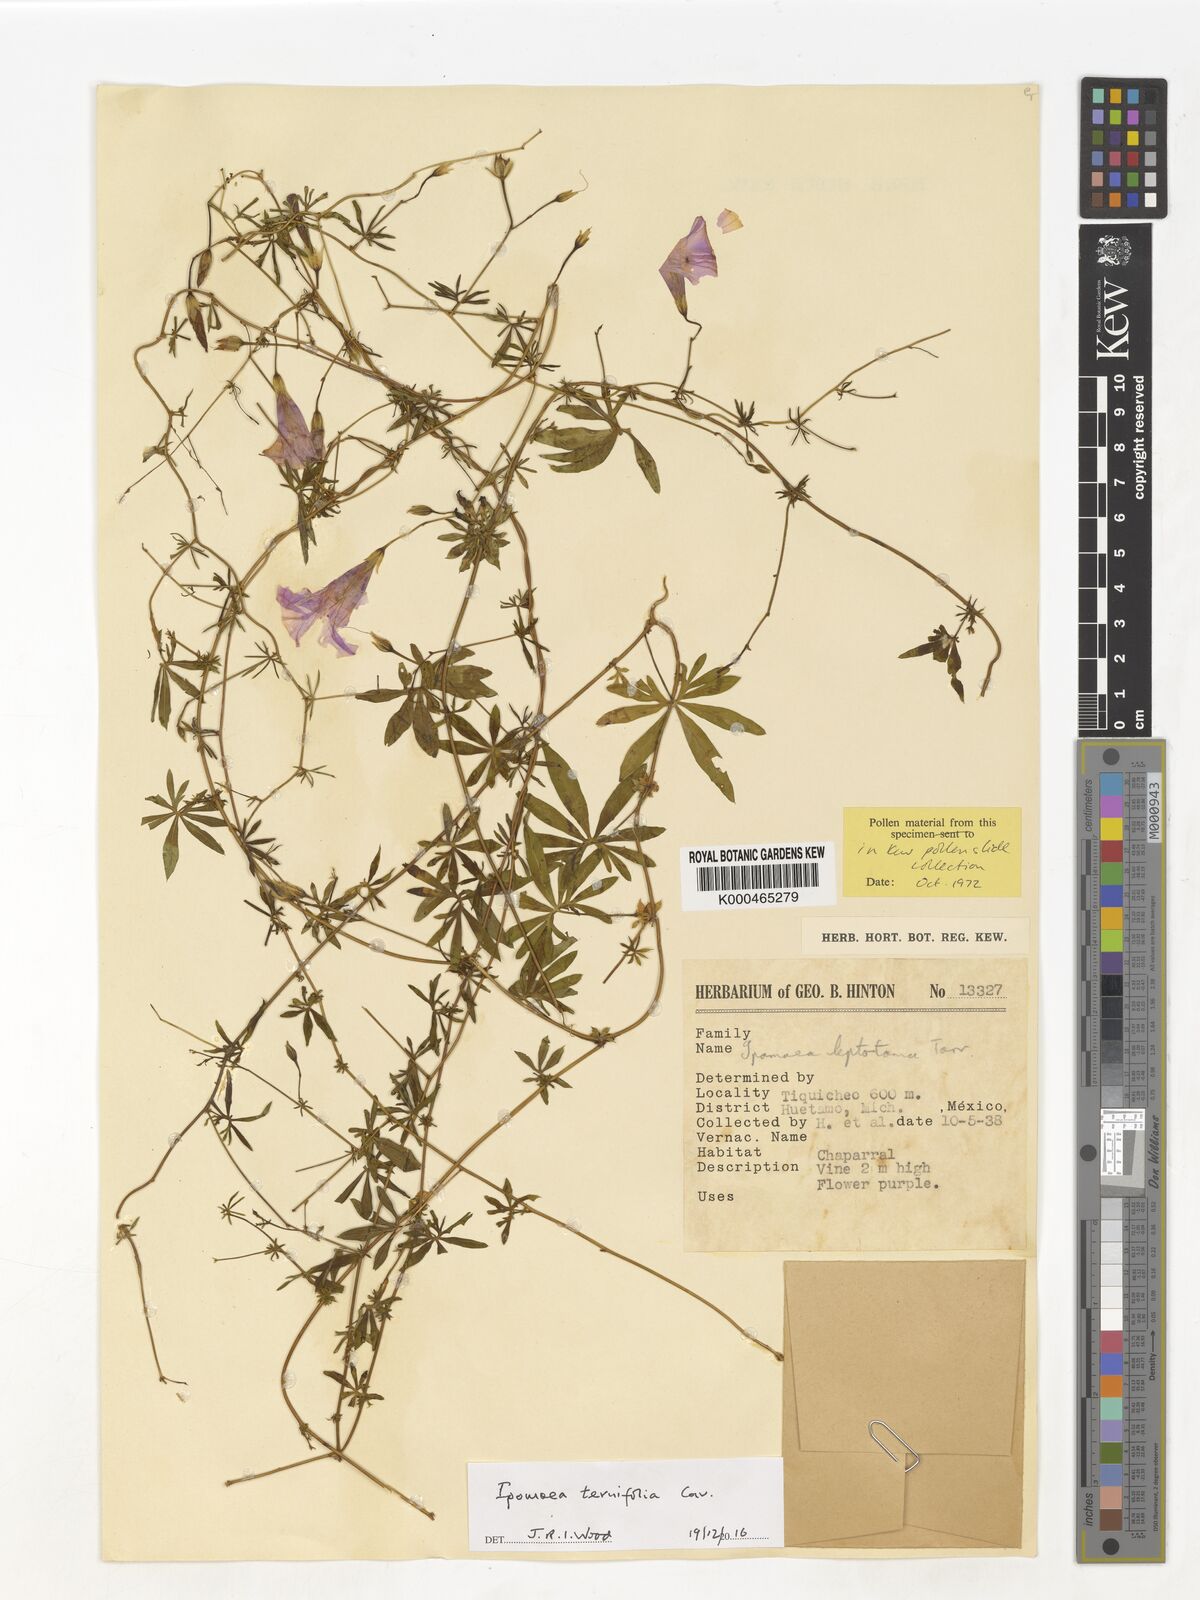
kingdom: Plantae
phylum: Tracheophyta
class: Magnoliopsida
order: Solanales
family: Convolvulaceae
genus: Ipomoea
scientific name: Ipomoea ternifolia
